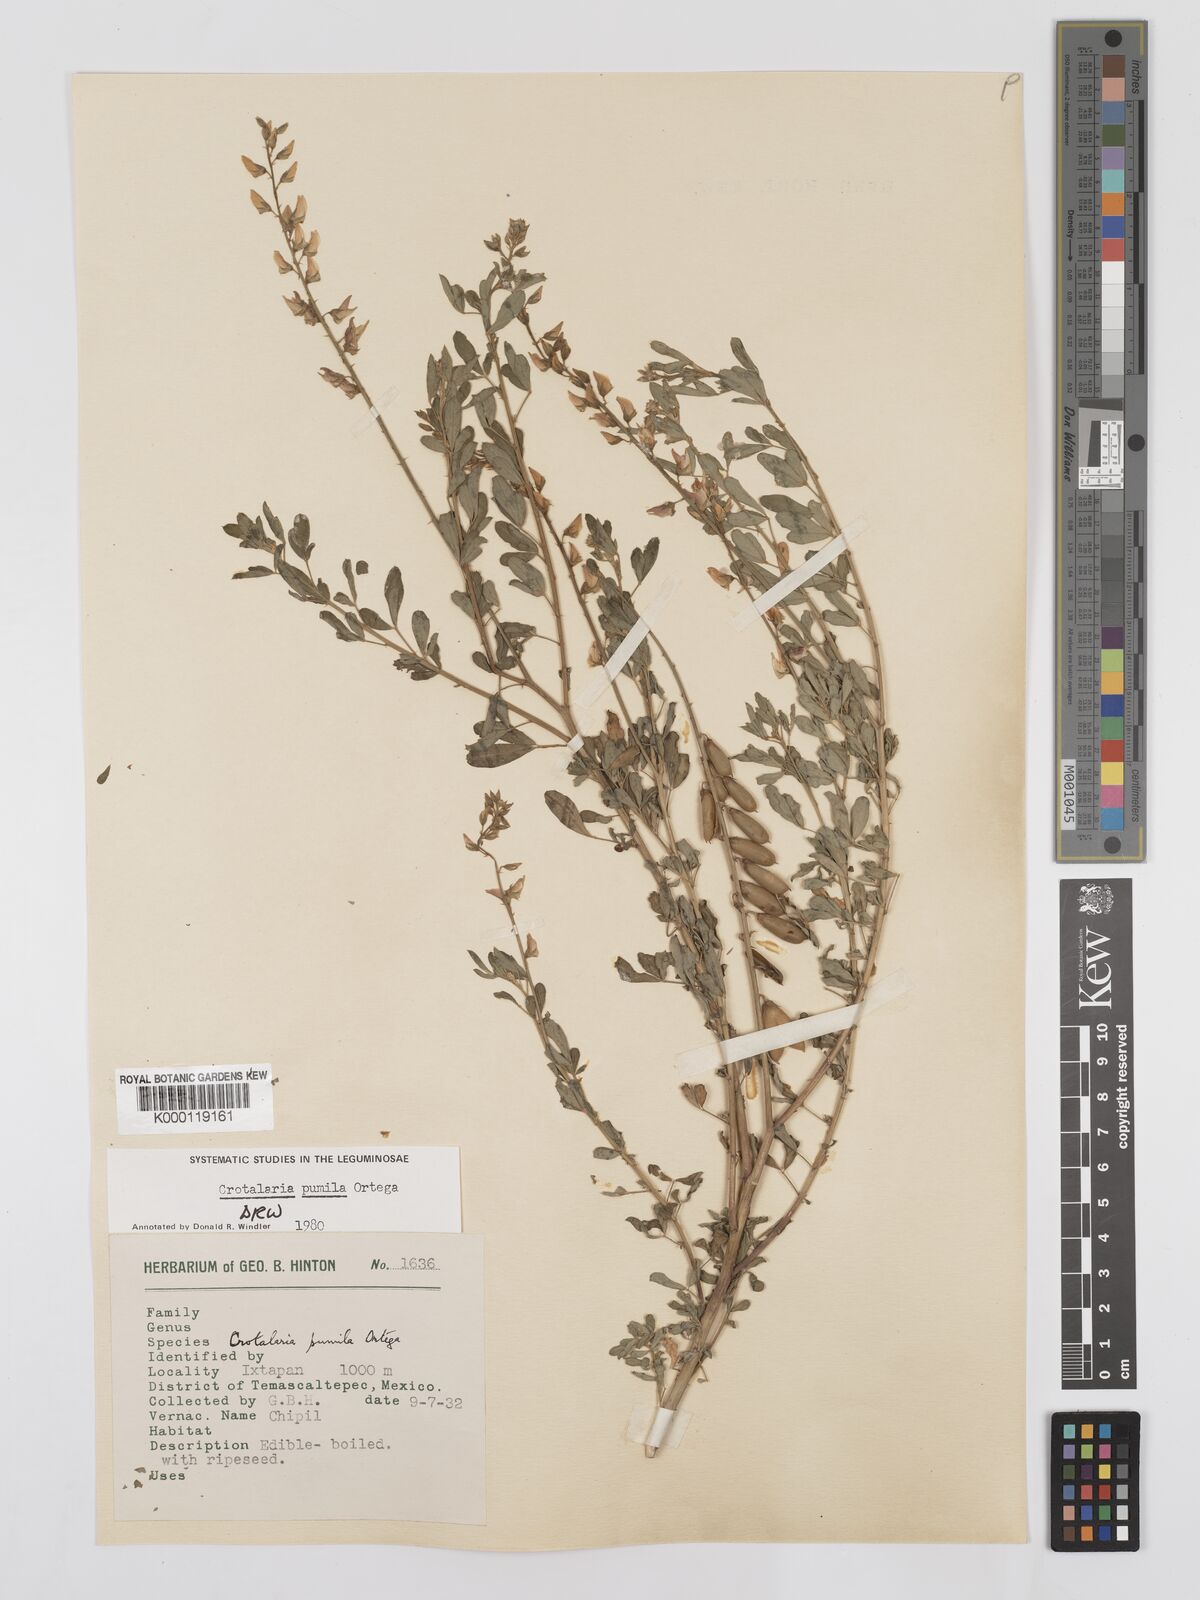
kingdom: Plantae
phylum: Tracheophyta
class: Magnoliopsida
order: Fabales
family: Fabaceae
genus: Crotalaria
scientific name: Crotalaria pumila
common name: Low rattlebox
